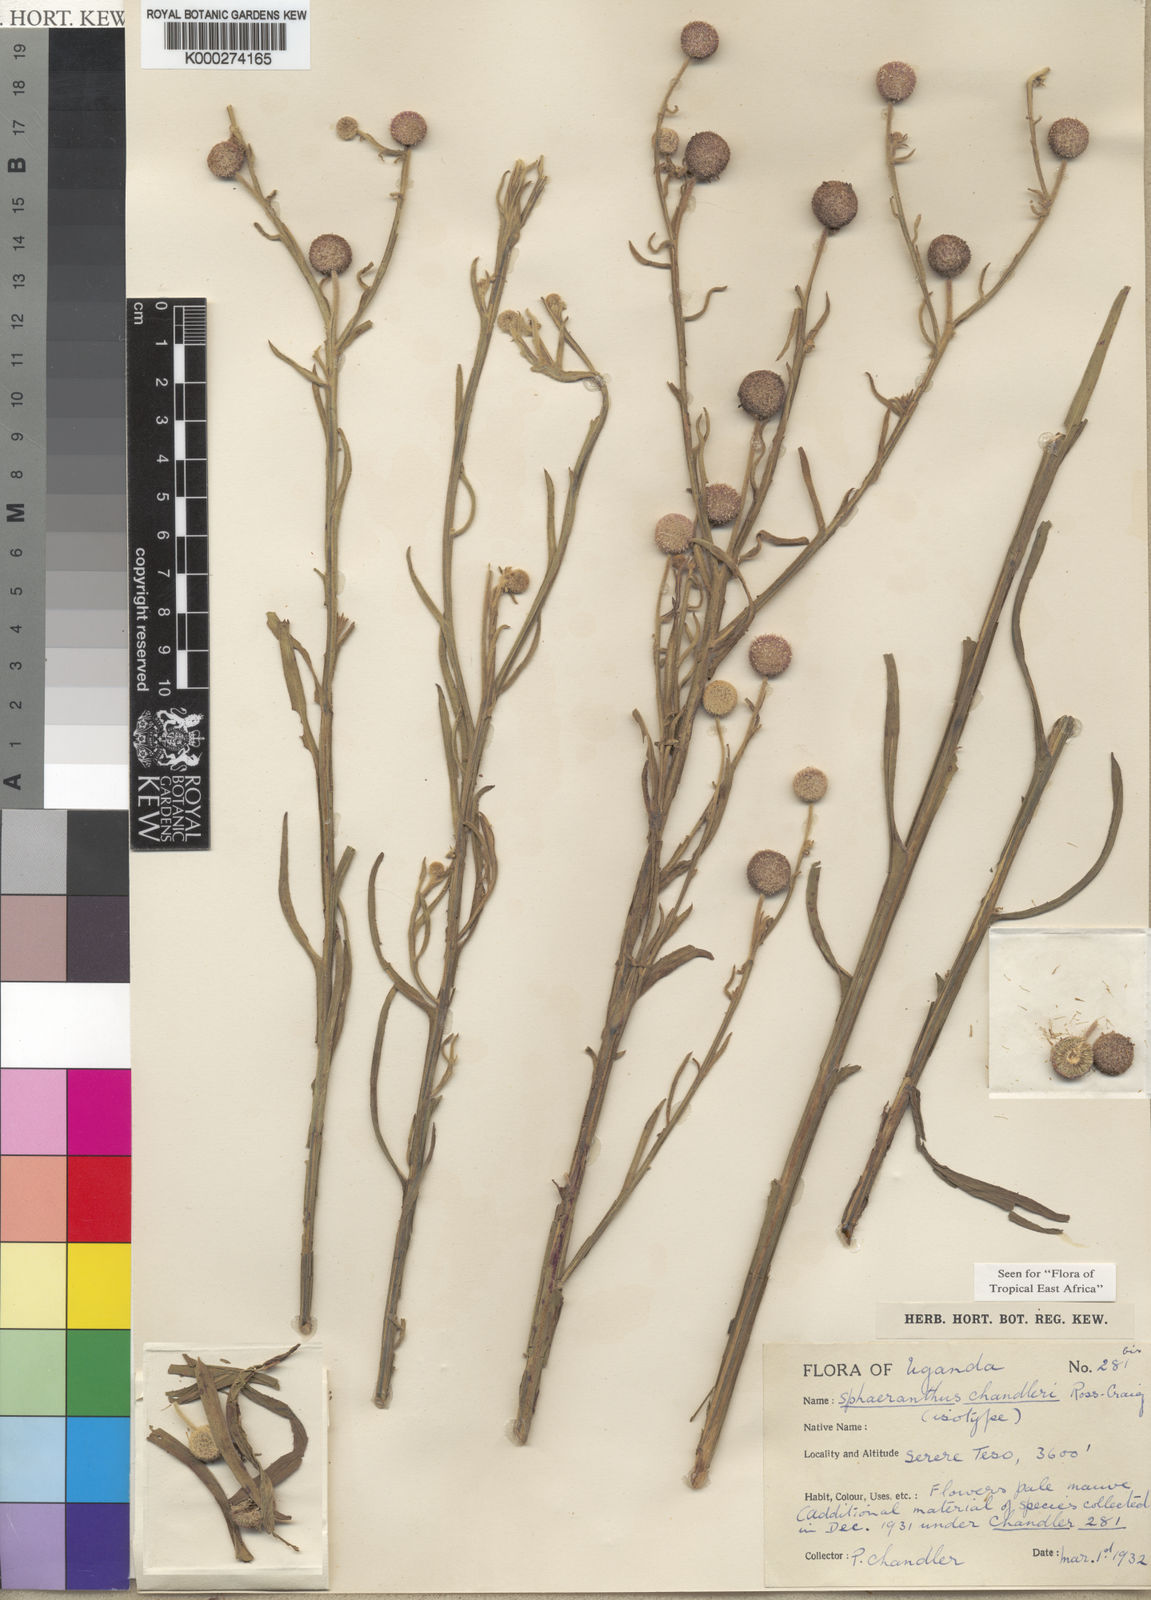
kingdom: Plantae
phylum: Tracheophyta
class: Magnoliopsida
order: Asterales
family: Asteraceae
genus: Sphaeranthus
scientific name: Sphaeranthus chandleri
